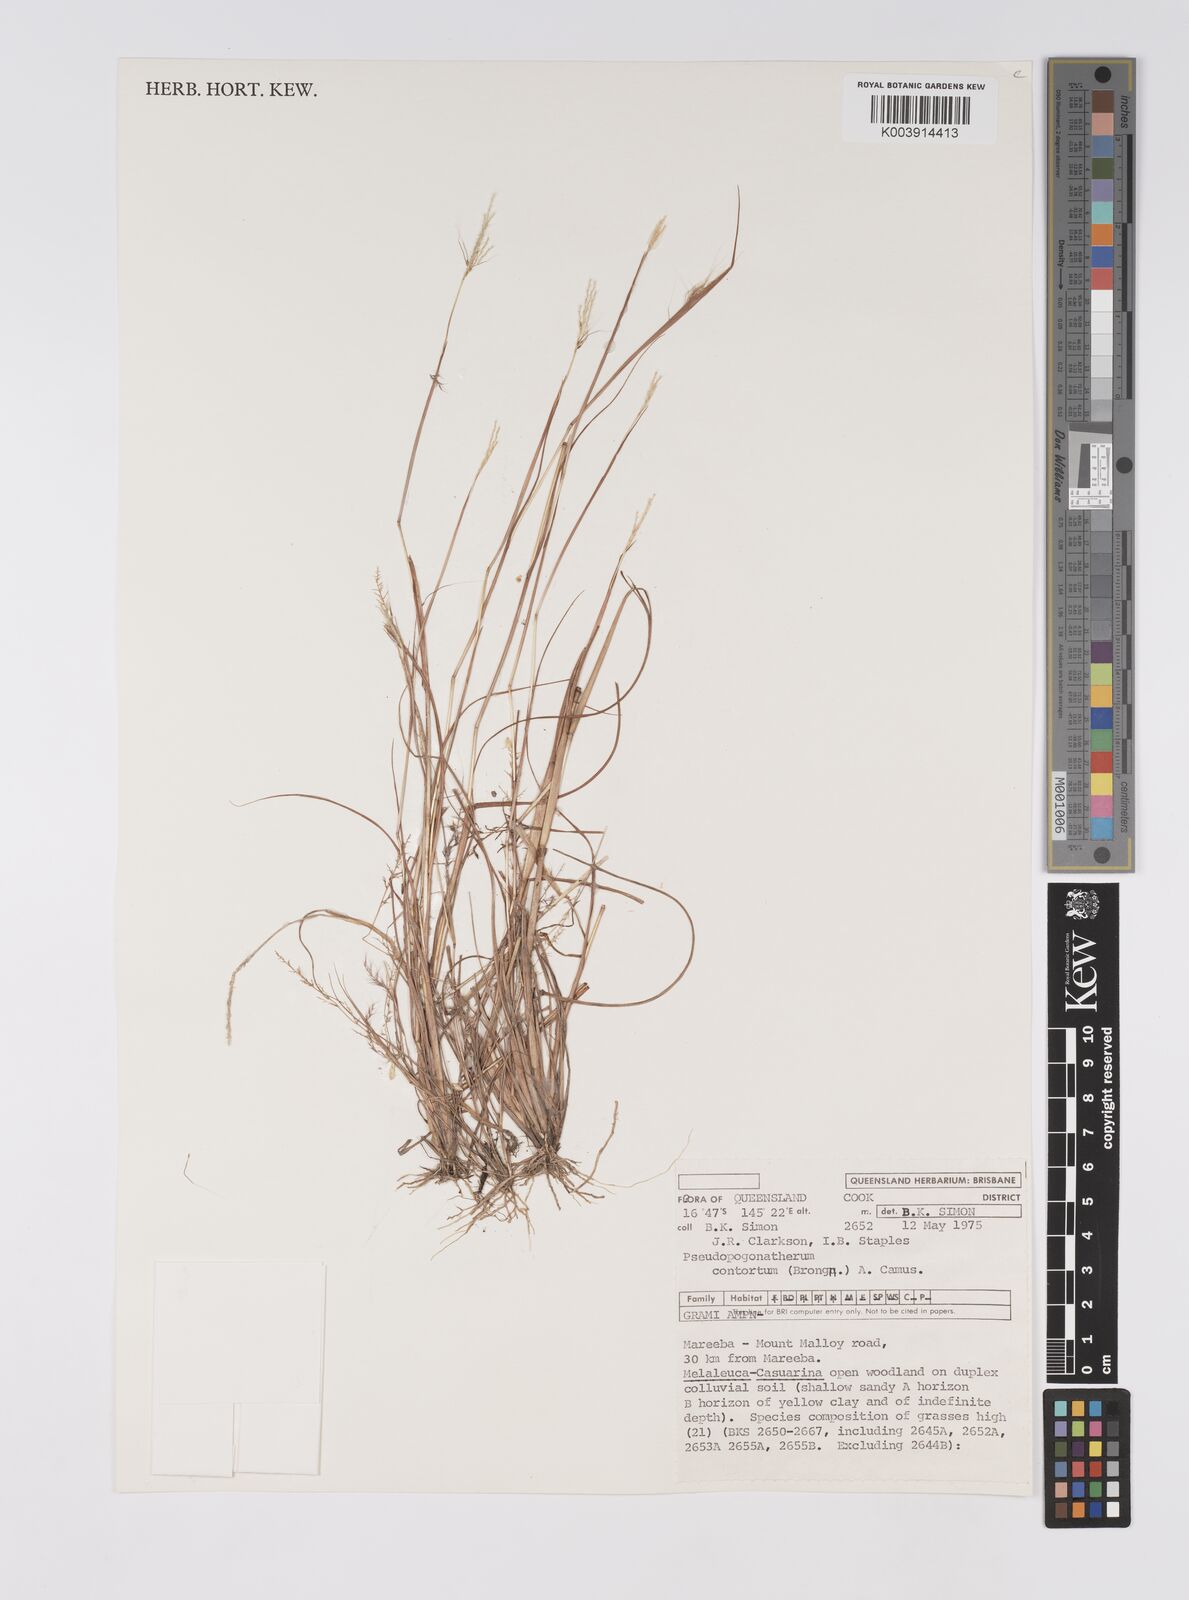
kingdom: Plantae
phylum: Tracheophyta
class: Liliopsida
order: Poales
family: Poaceae
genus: Pseudopogonatherum
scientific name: Pseudopogonatherum contortum
